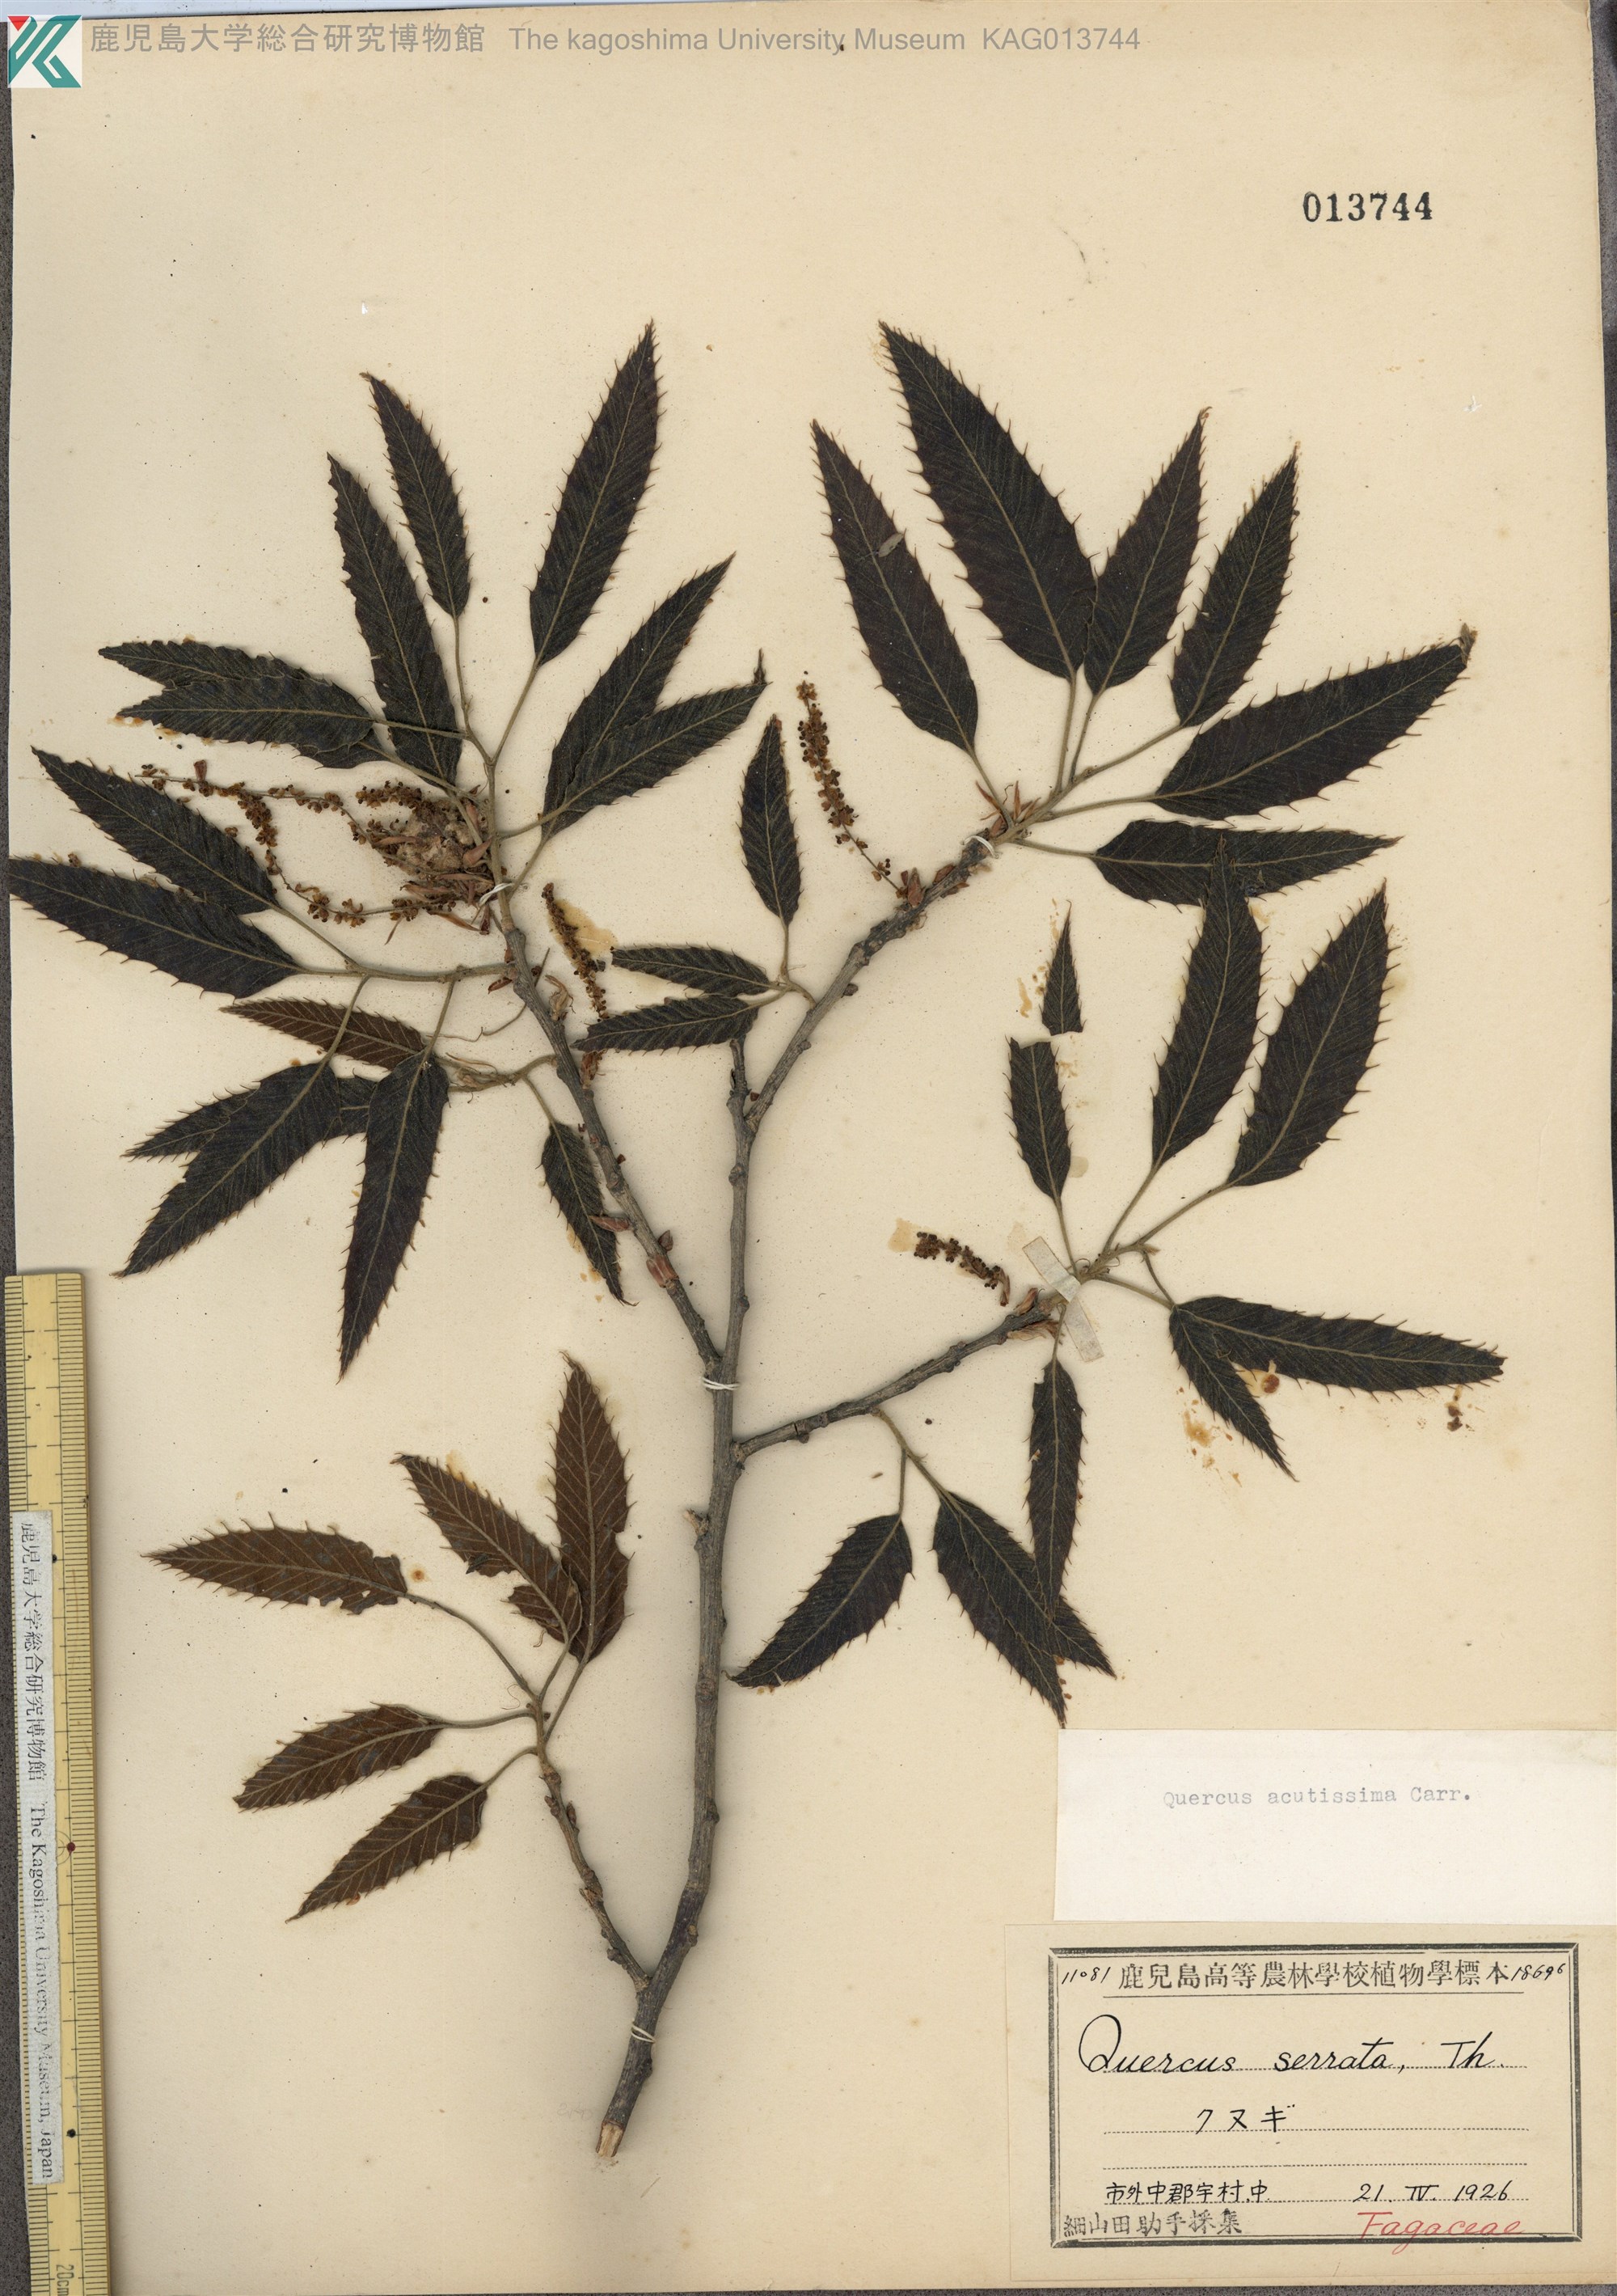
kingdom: Plantae
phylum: Tracheophyta
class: Magnoliopsida
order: Fagales
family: Fagaceae
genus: Quercus
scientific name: Quercus acutissima
